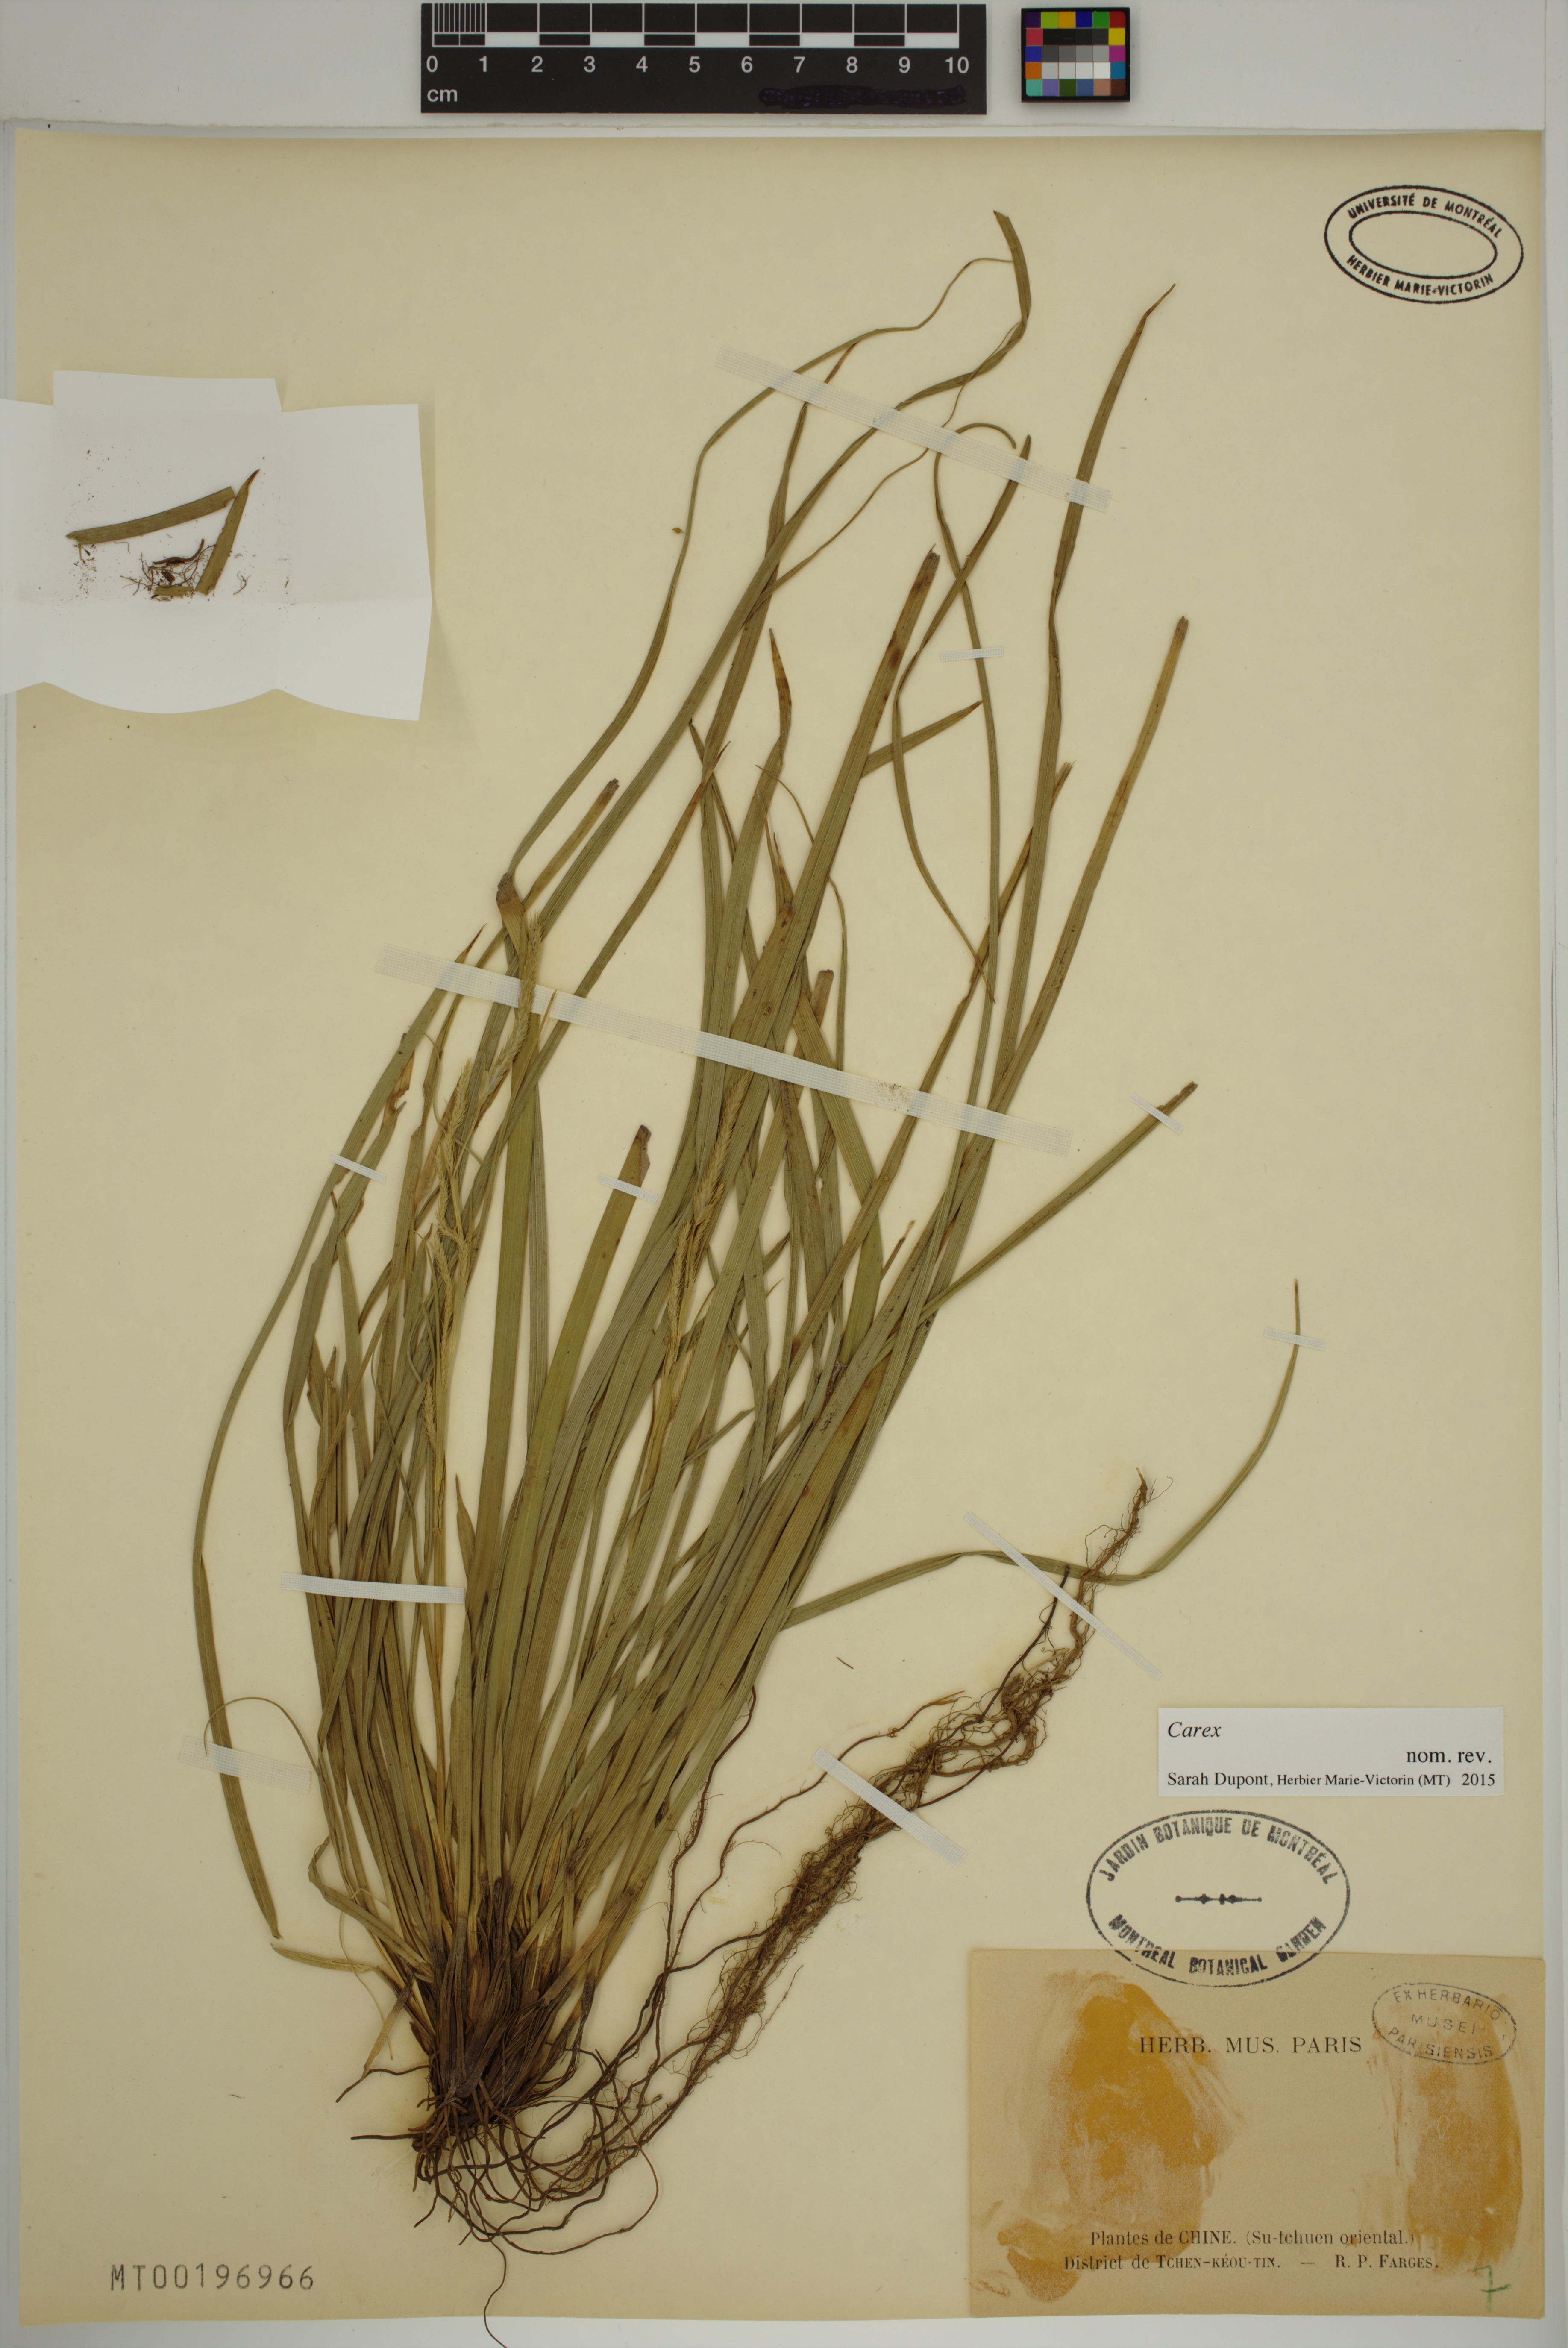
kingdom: Plantae
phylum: Tracheophyta
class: Liliopsida
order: Poales
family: Cyperaceae
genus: Carex
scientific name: Carex
